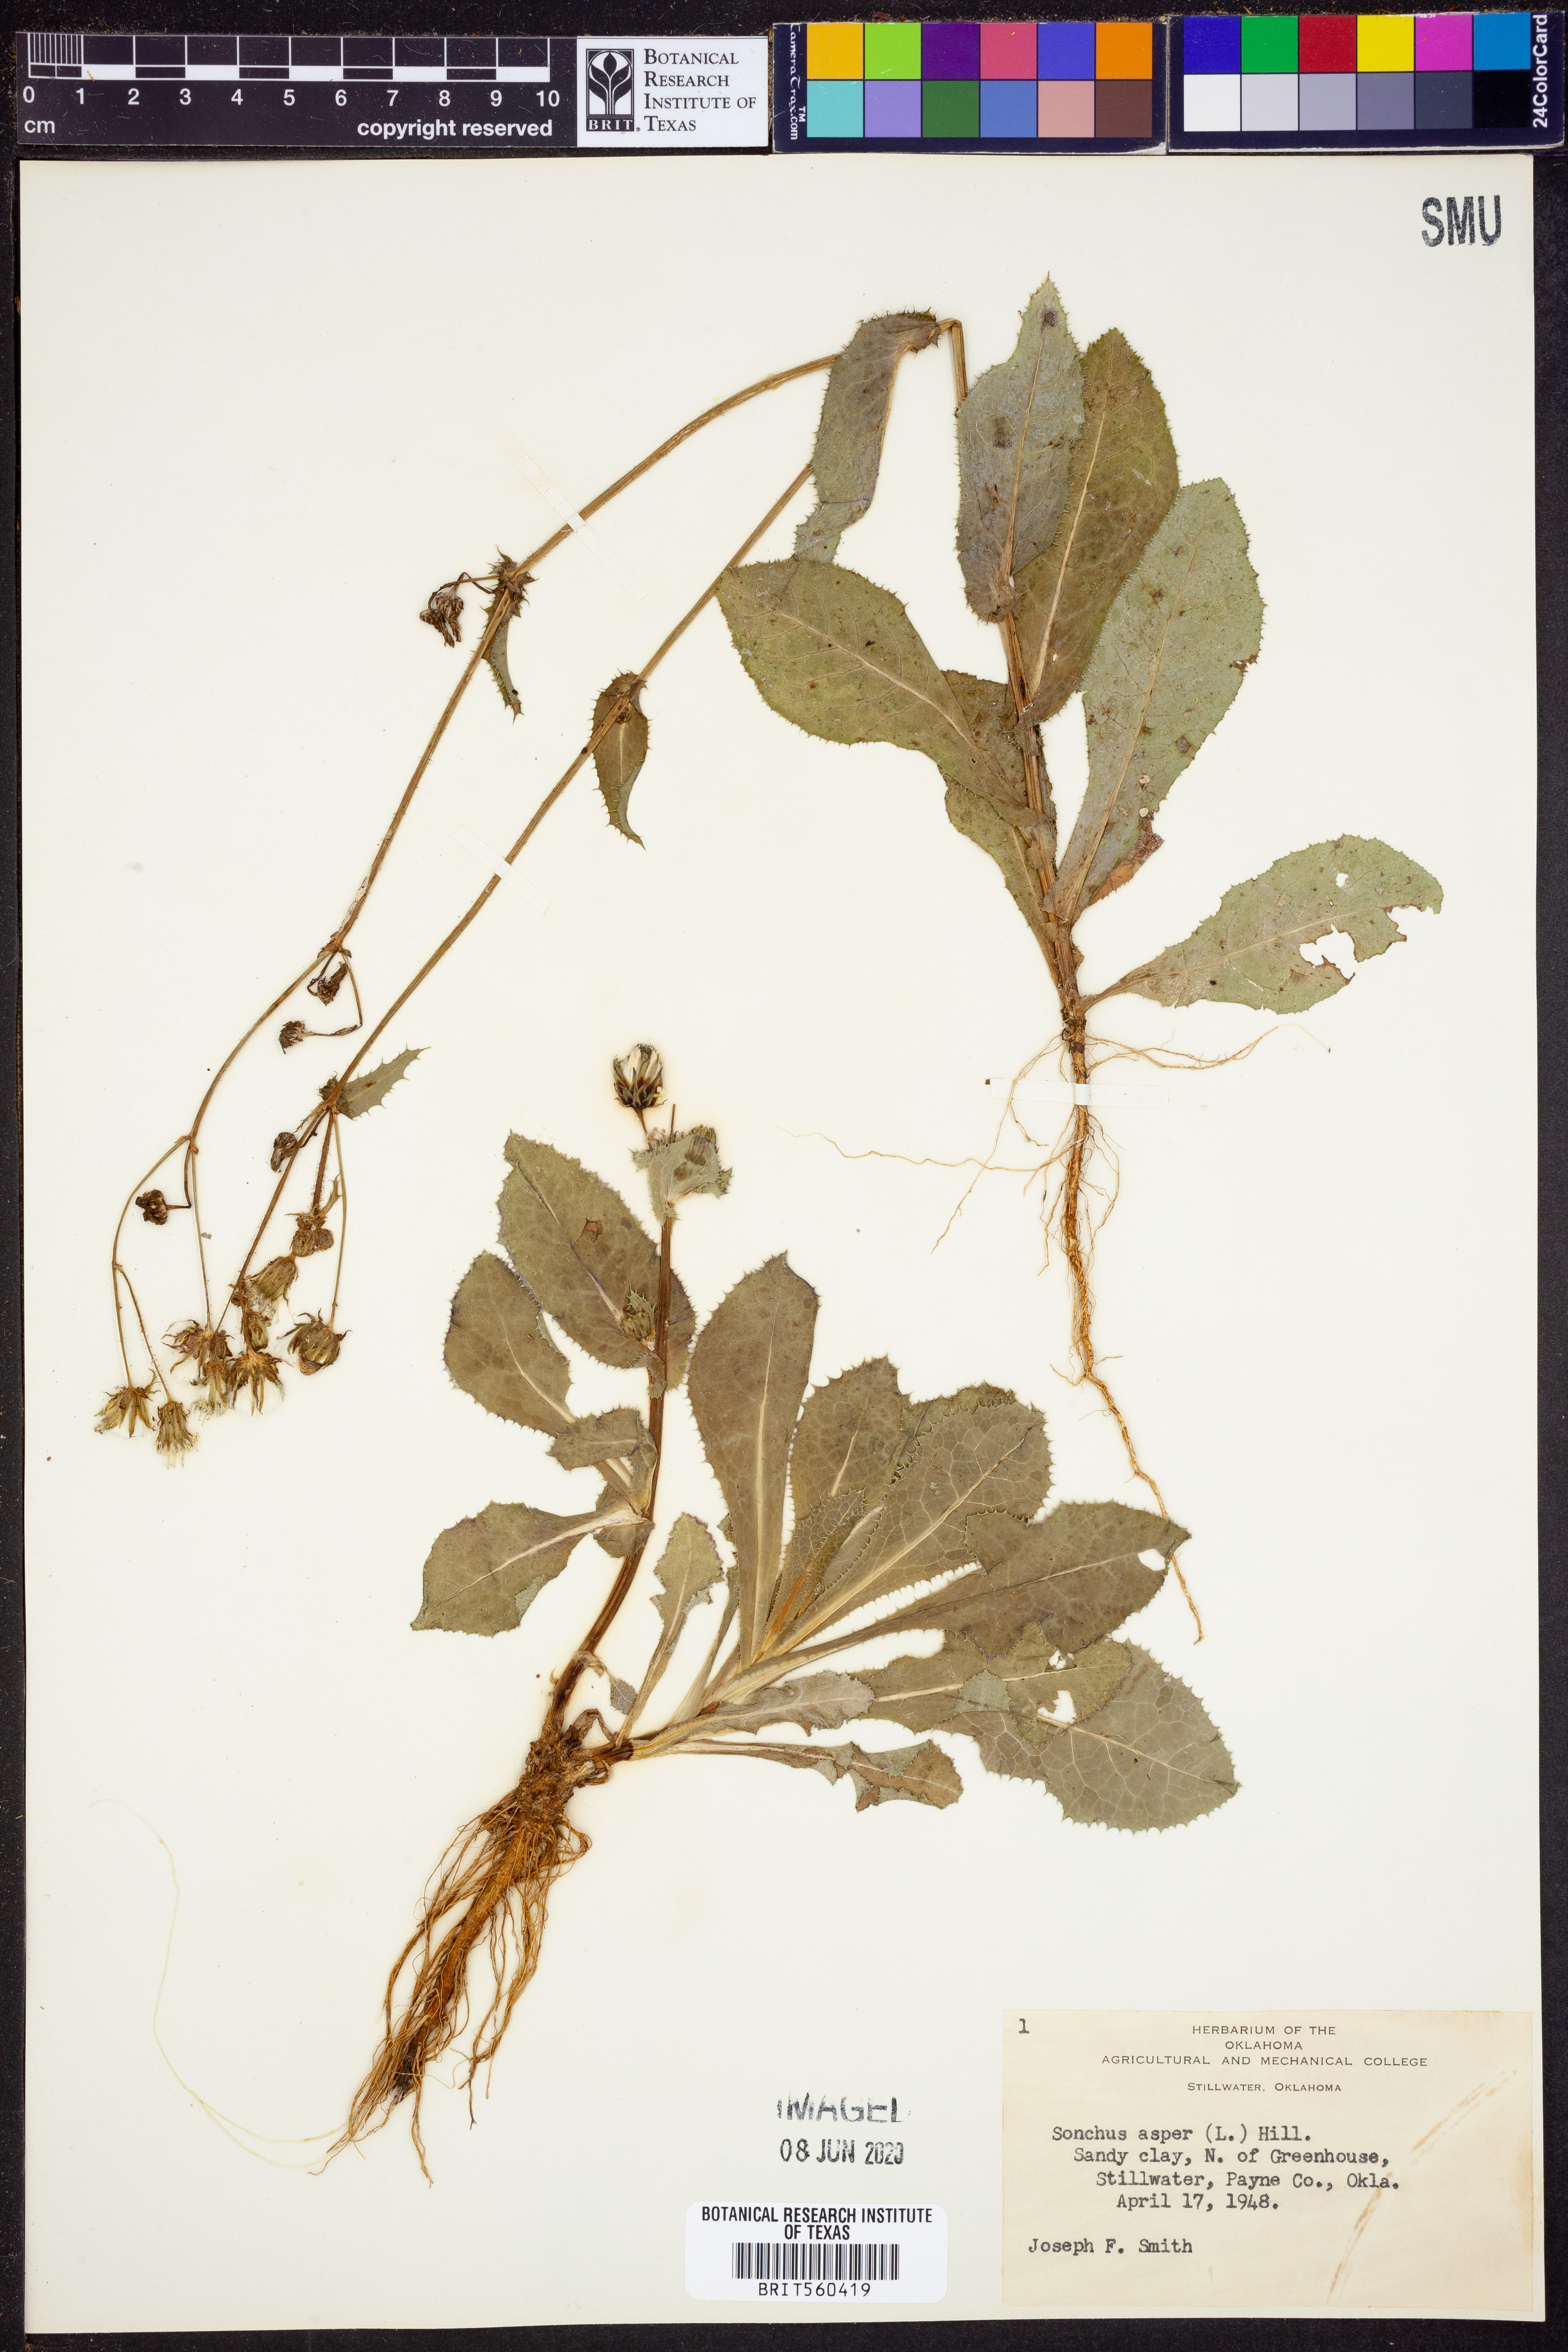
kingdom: Plantae
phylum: Tracheophyta
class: Magnoliopsida
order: Asterales
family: Asteraceae
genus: Sonchus
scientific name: Sonchus asper
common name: Prickly sow-thistle
